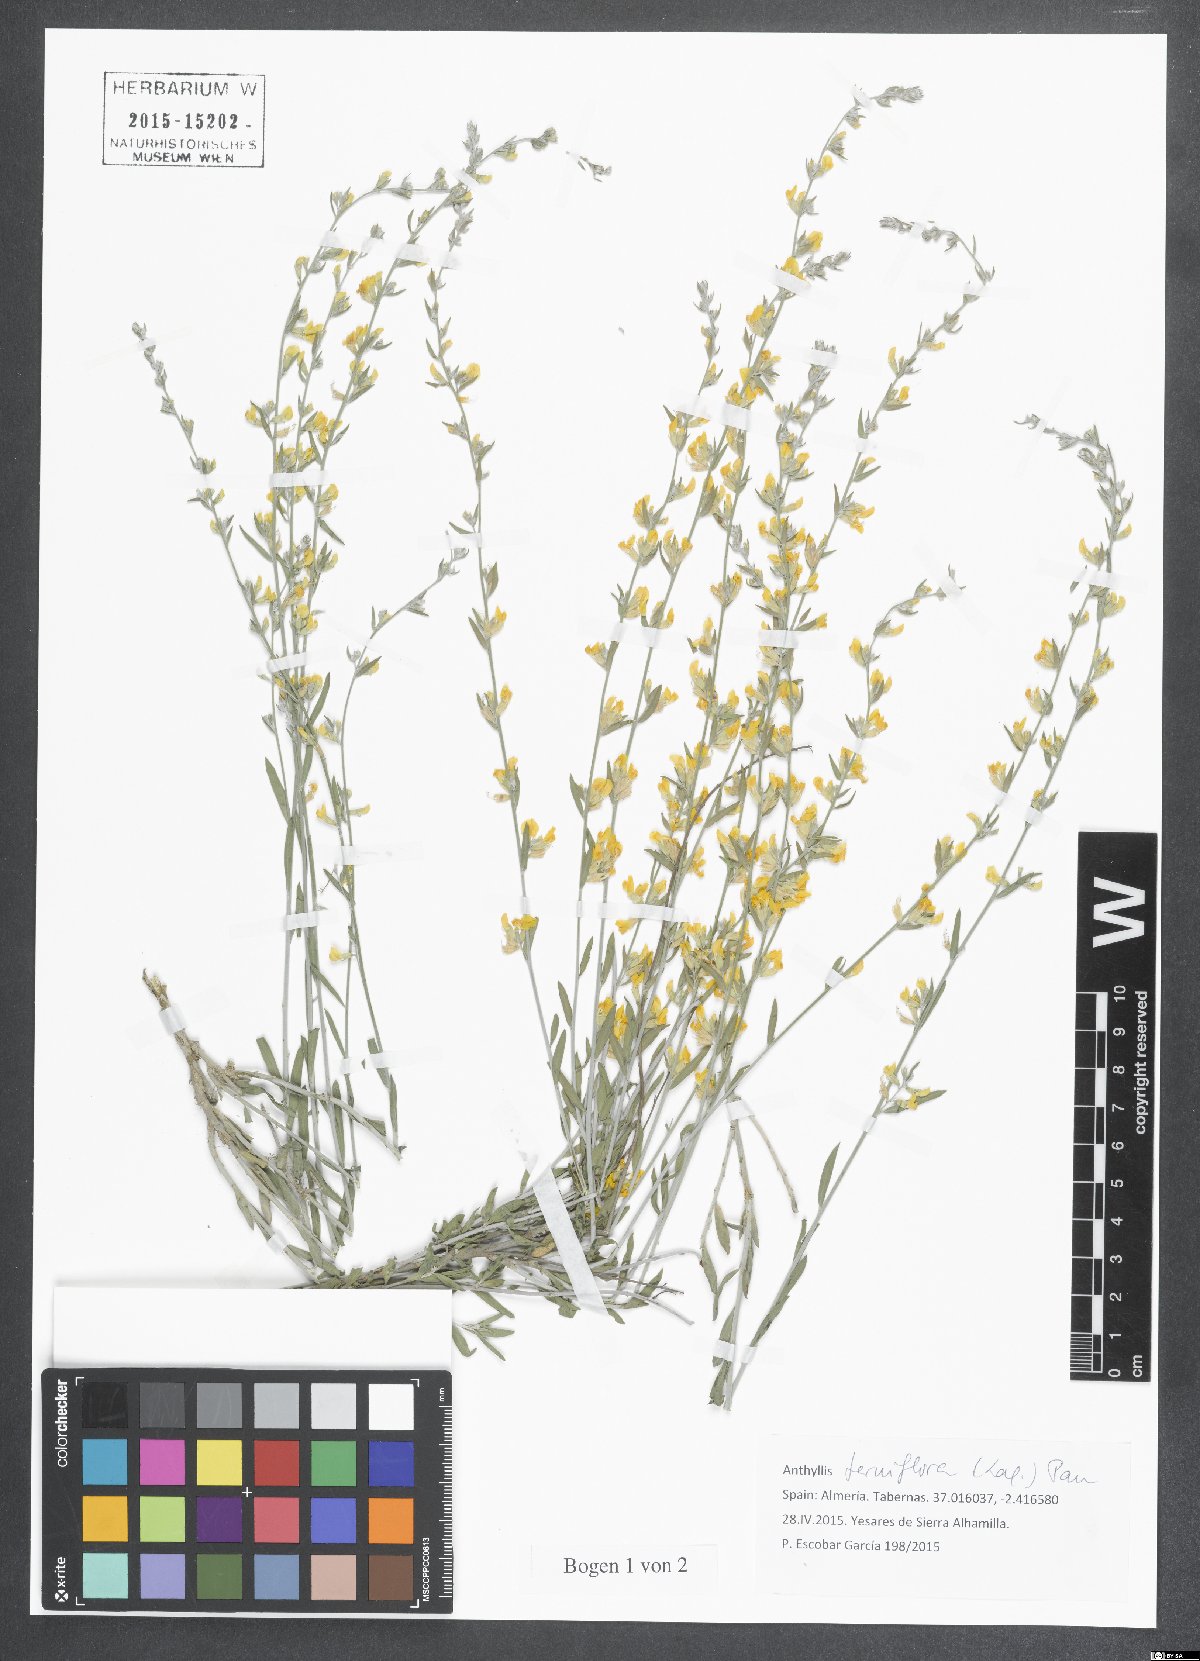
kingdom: Plantae
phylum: Tracheophyta
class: Magnoliopsida
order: Fabales
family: Fabaceae
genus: Anthyllis
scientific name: Anthyllis terniflora
